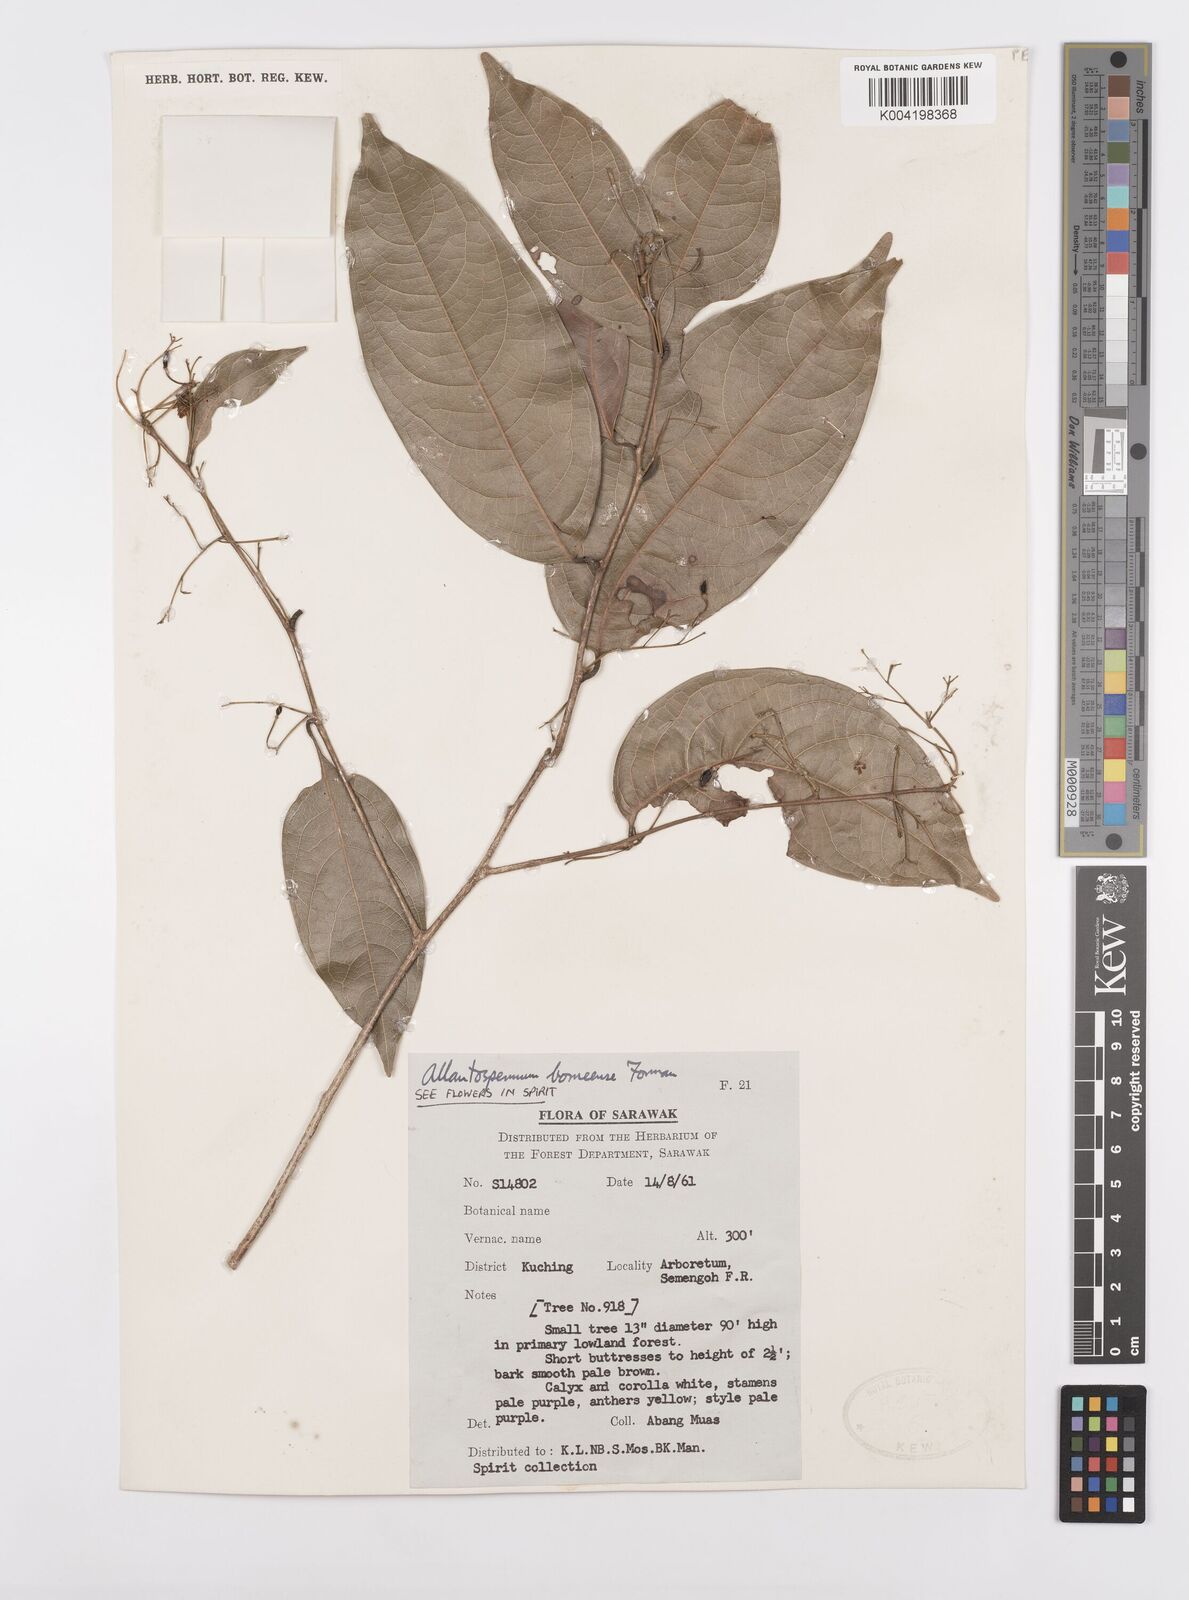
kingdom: Plantae
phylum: Tracheophyta
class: Magnoliopsida
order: Malpighiales
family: Ixonanthaceae
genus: Allantospermum
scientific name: Allantospermum borneense
